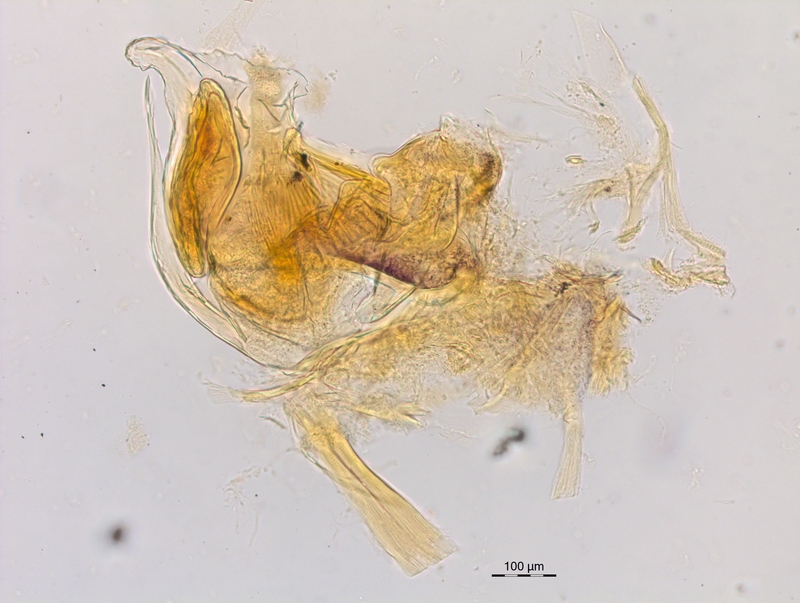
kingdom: Animalia
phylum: Arthropoda
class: Diplopoda
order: Chordeumatida
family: Craspedosomatidae
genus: Craspedosoma
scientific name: Craspedosoma rawlinsii
